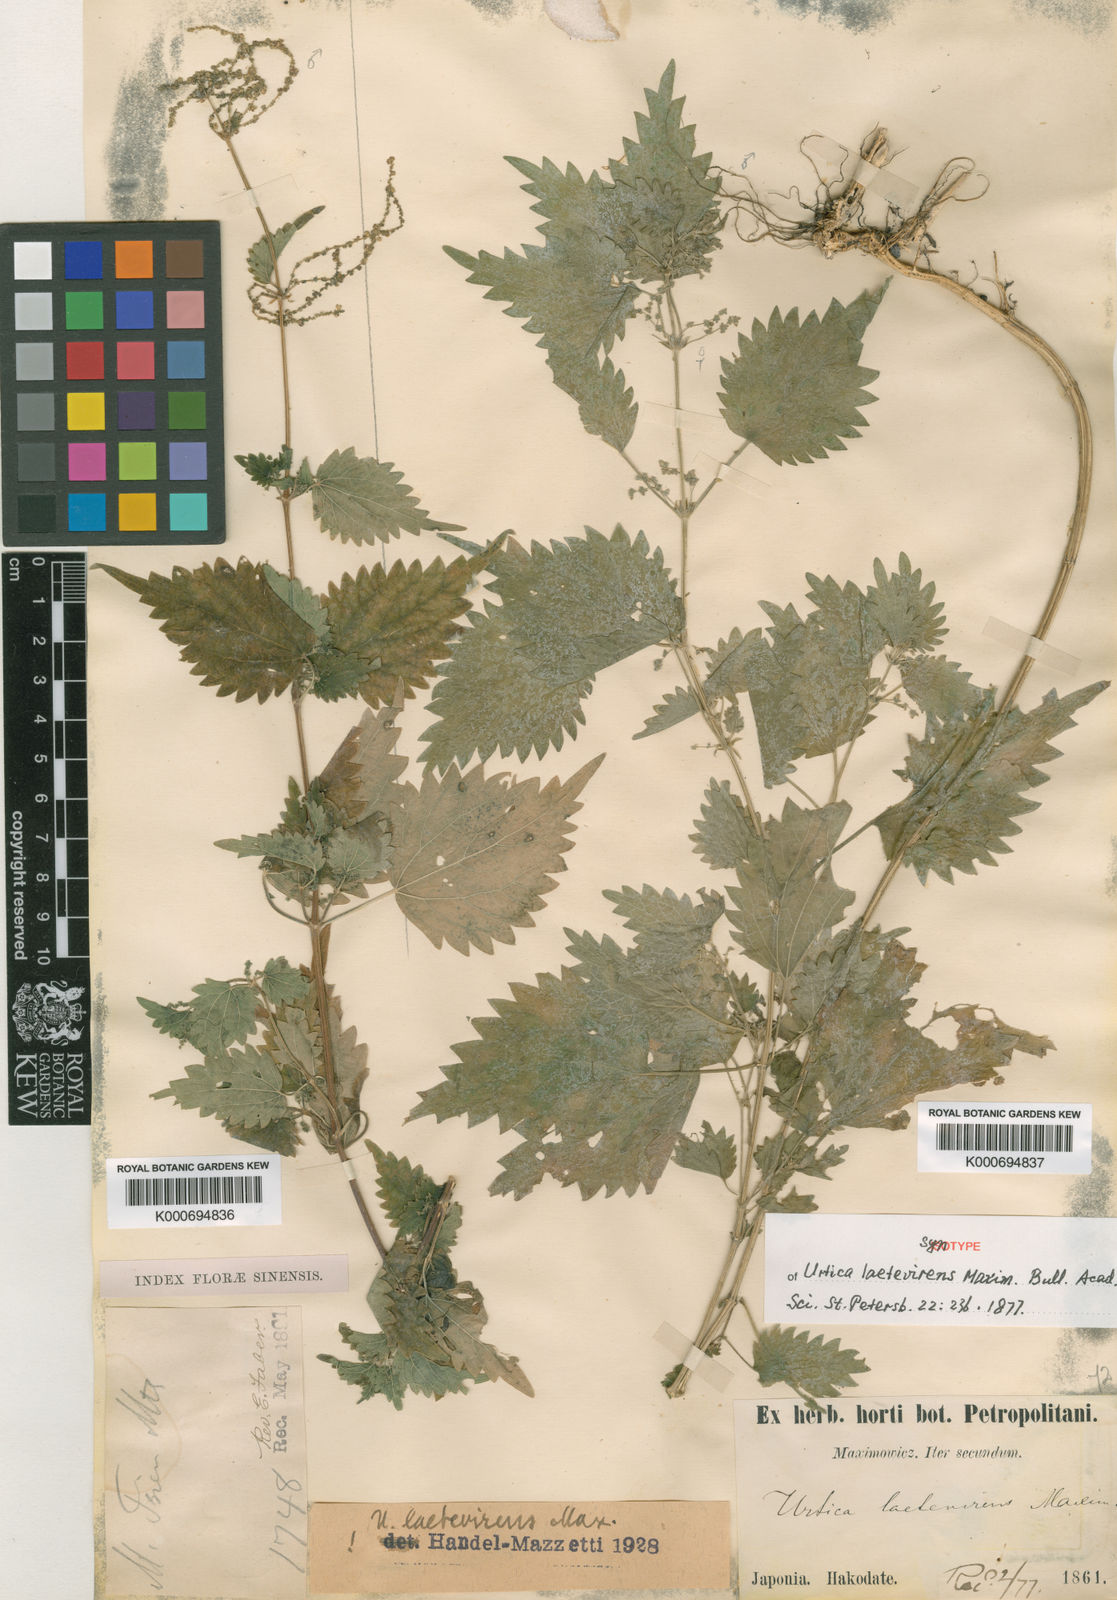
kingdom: Plantae
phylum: Tracheophyta
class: Magnoliopsida
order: Rosales
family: Urticaceae
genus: Urtica
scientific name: Urtica thunbergiana
